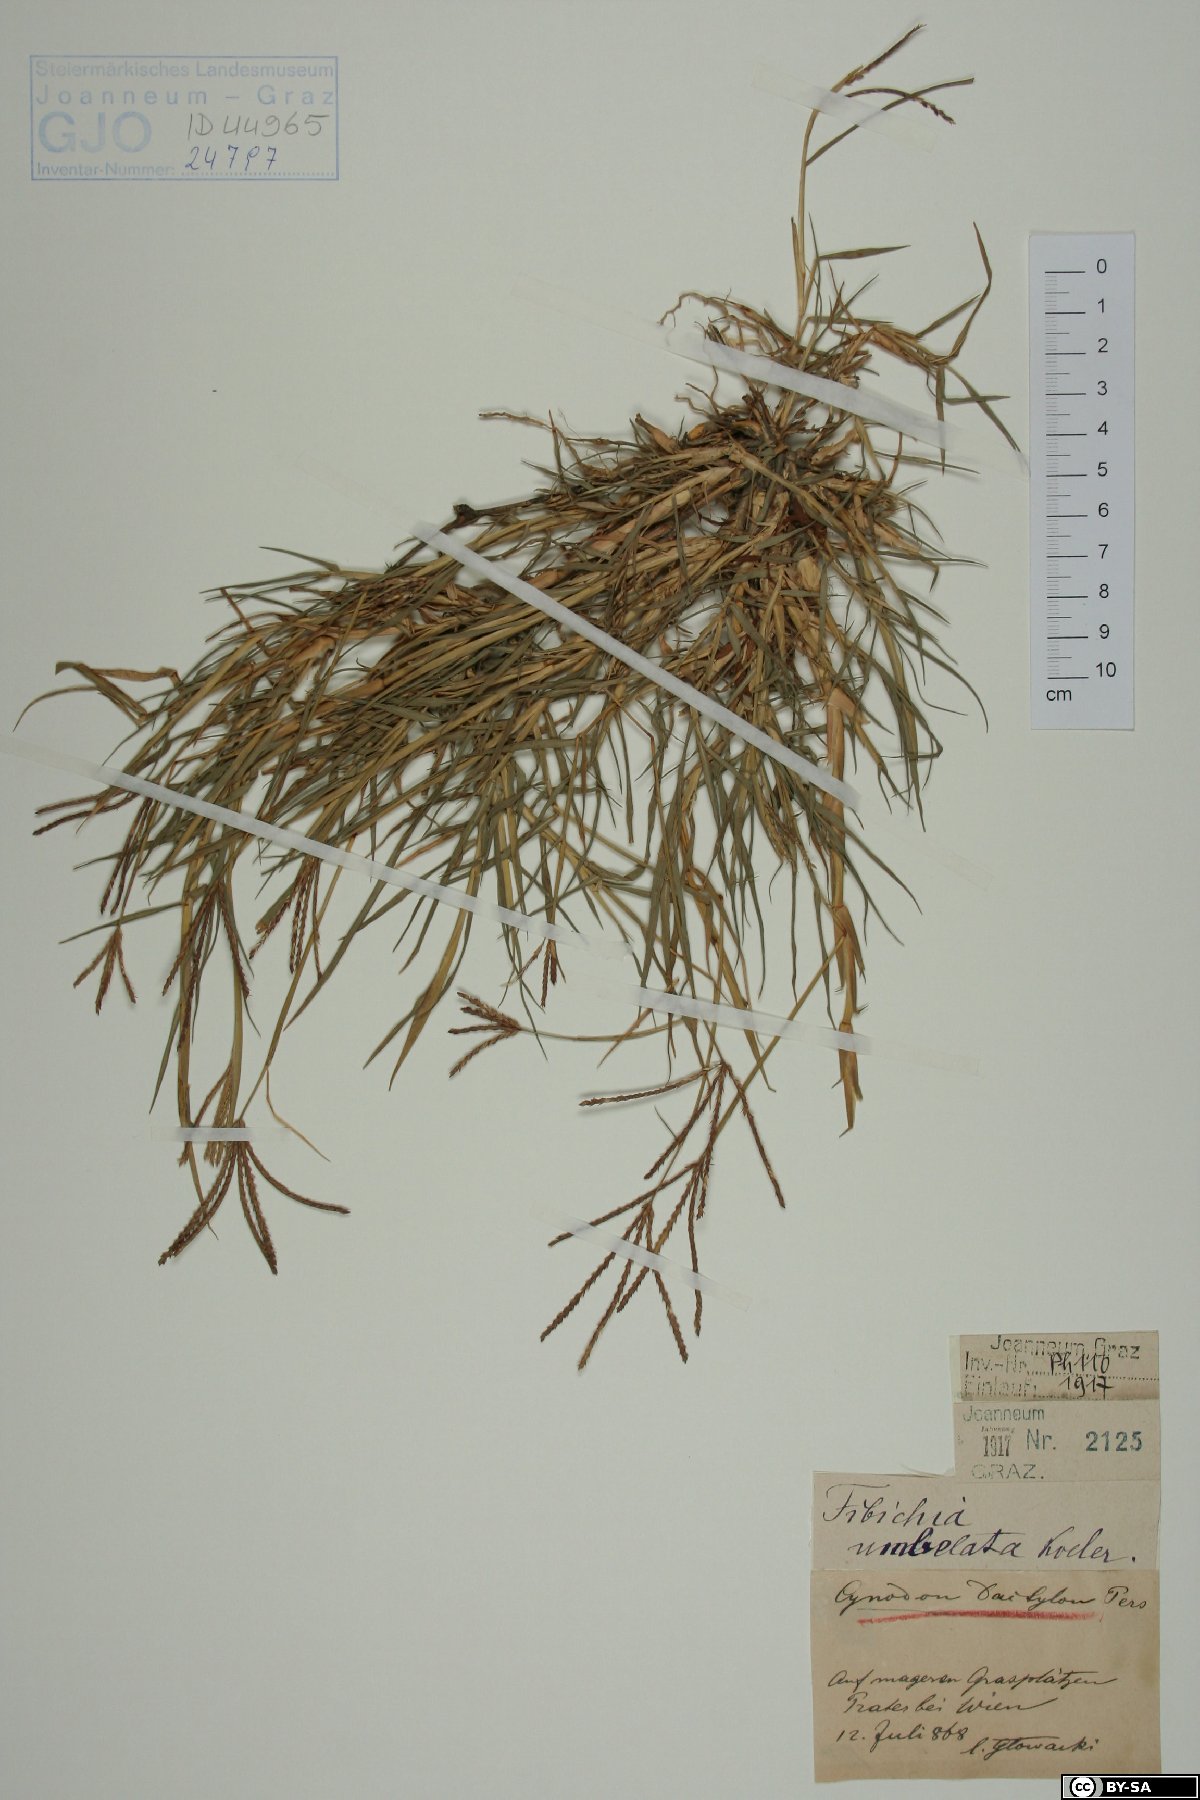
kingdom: Plantae
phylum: Tracheophyta
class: Liliopsida
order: Poales
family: Poaceae
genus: Cynodon
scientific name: Cynodon dactylon
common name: Bermuda grass
